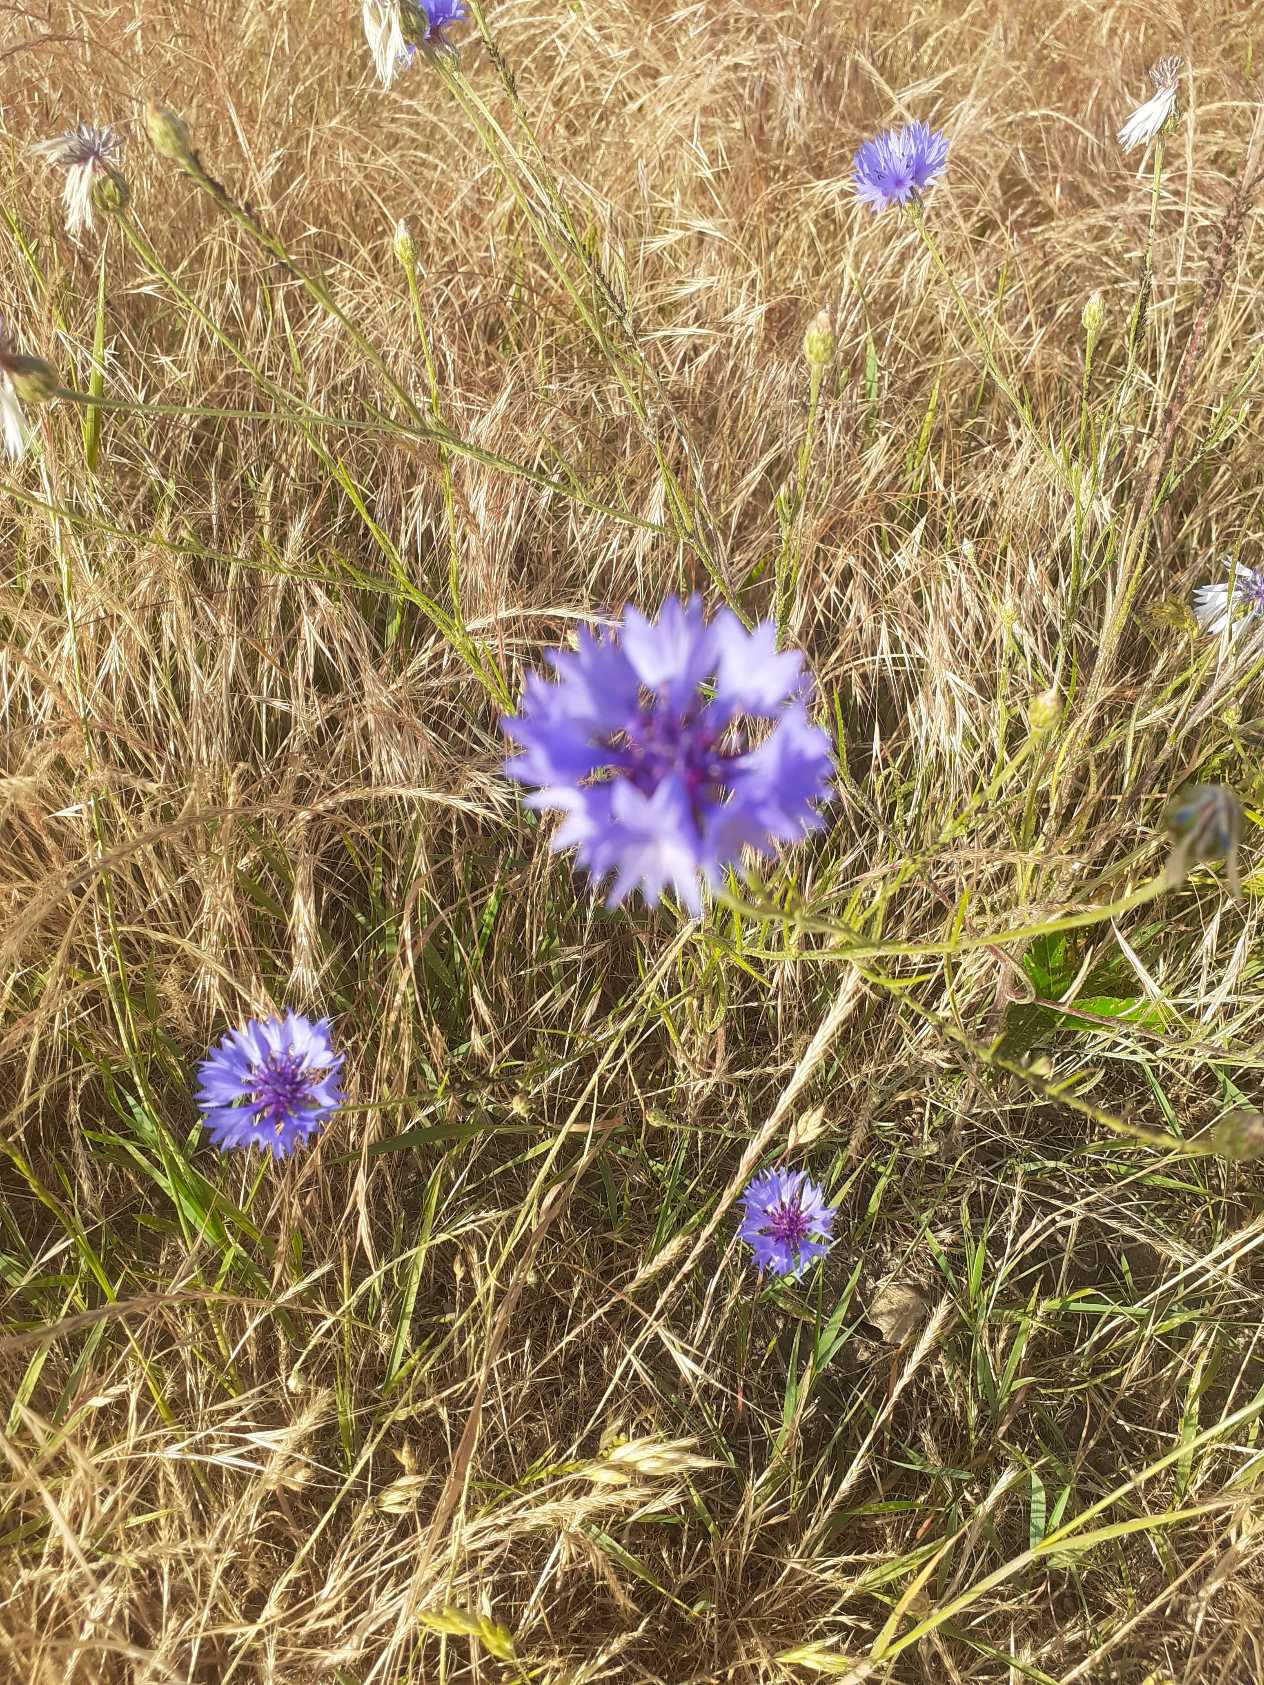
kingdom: Plantae
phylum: Tracheophyta
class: Magnoliopsida
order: Asterales
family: Asteraceae
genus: Centaurea
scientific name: Centaurea cyanus
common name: Kornblomst
